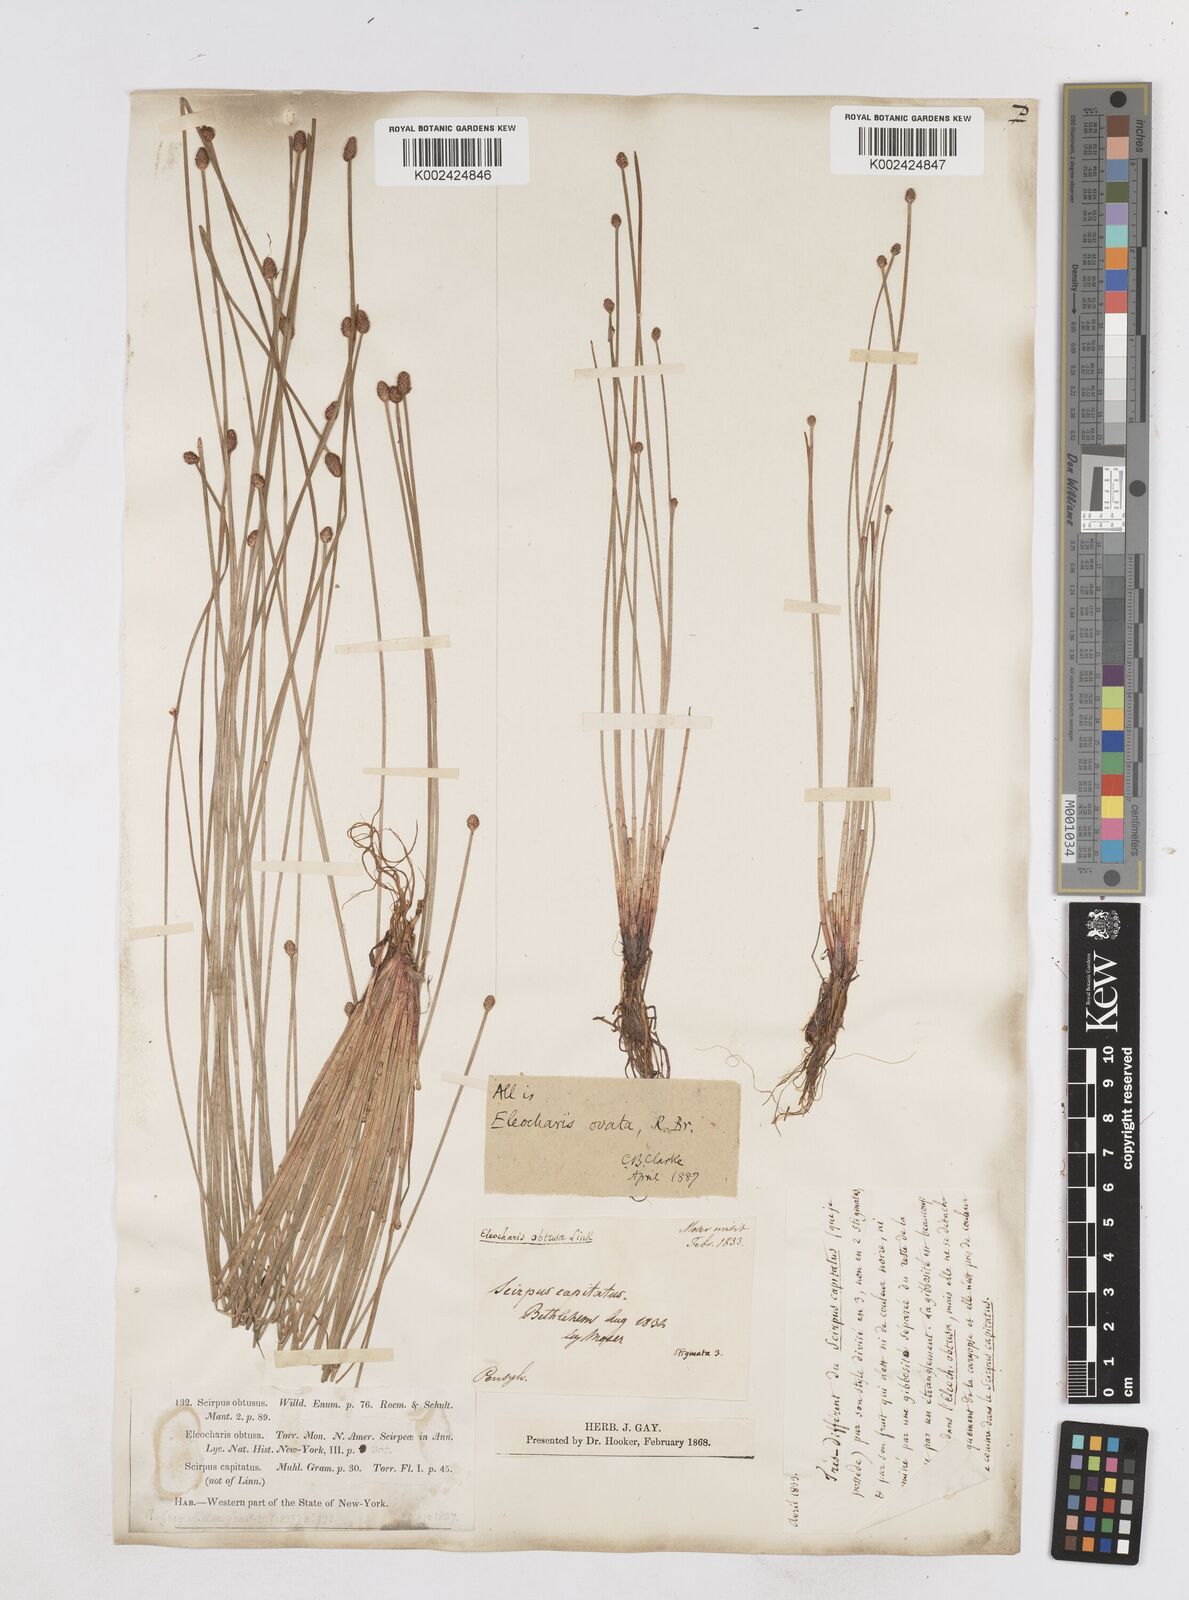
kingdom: Plantae
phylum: Tracheophyta
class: Liliopsida
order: Poales
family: Cyperaceae
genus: Eleocharis
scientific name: Eleocharis obtusa
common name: Blunt spikerush
